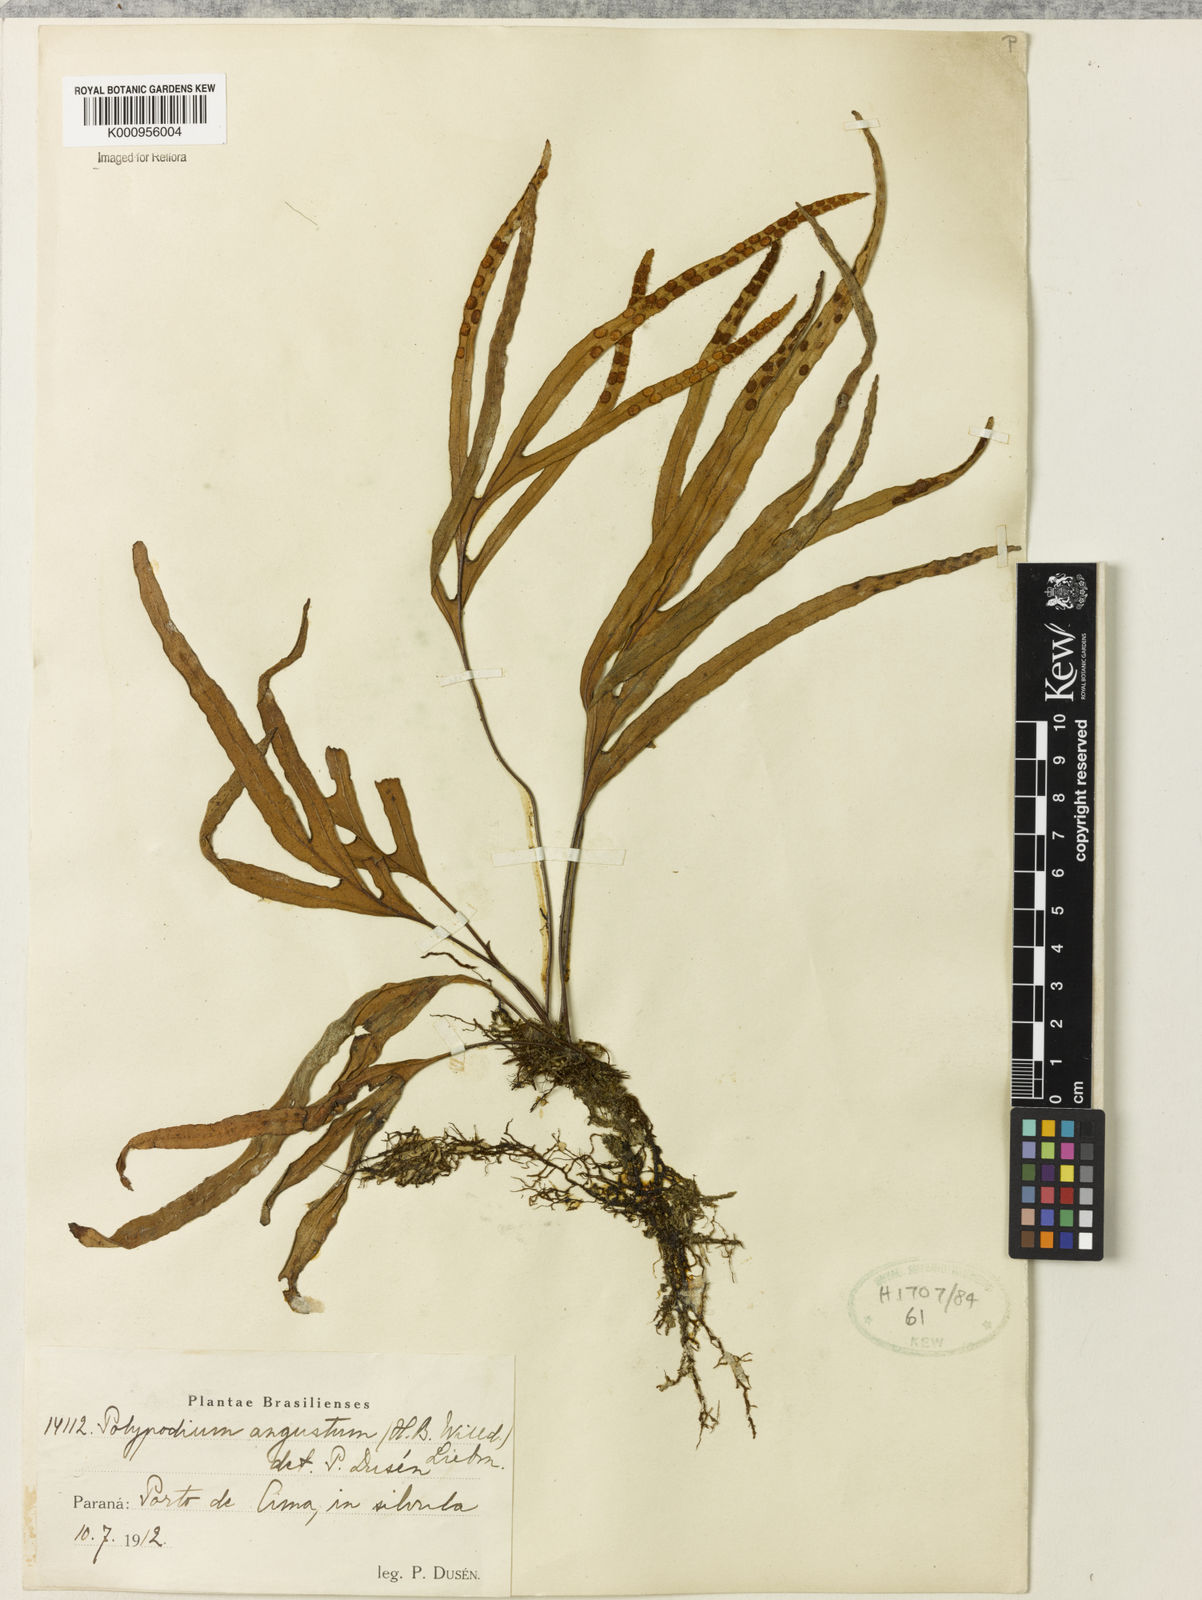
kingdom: Plantae
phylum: Tracheophyta
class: Polypodiopsida
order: Polypodiales
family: Polypodiaceae
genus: Pleopeltis
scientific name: Pleopeltis angusta
